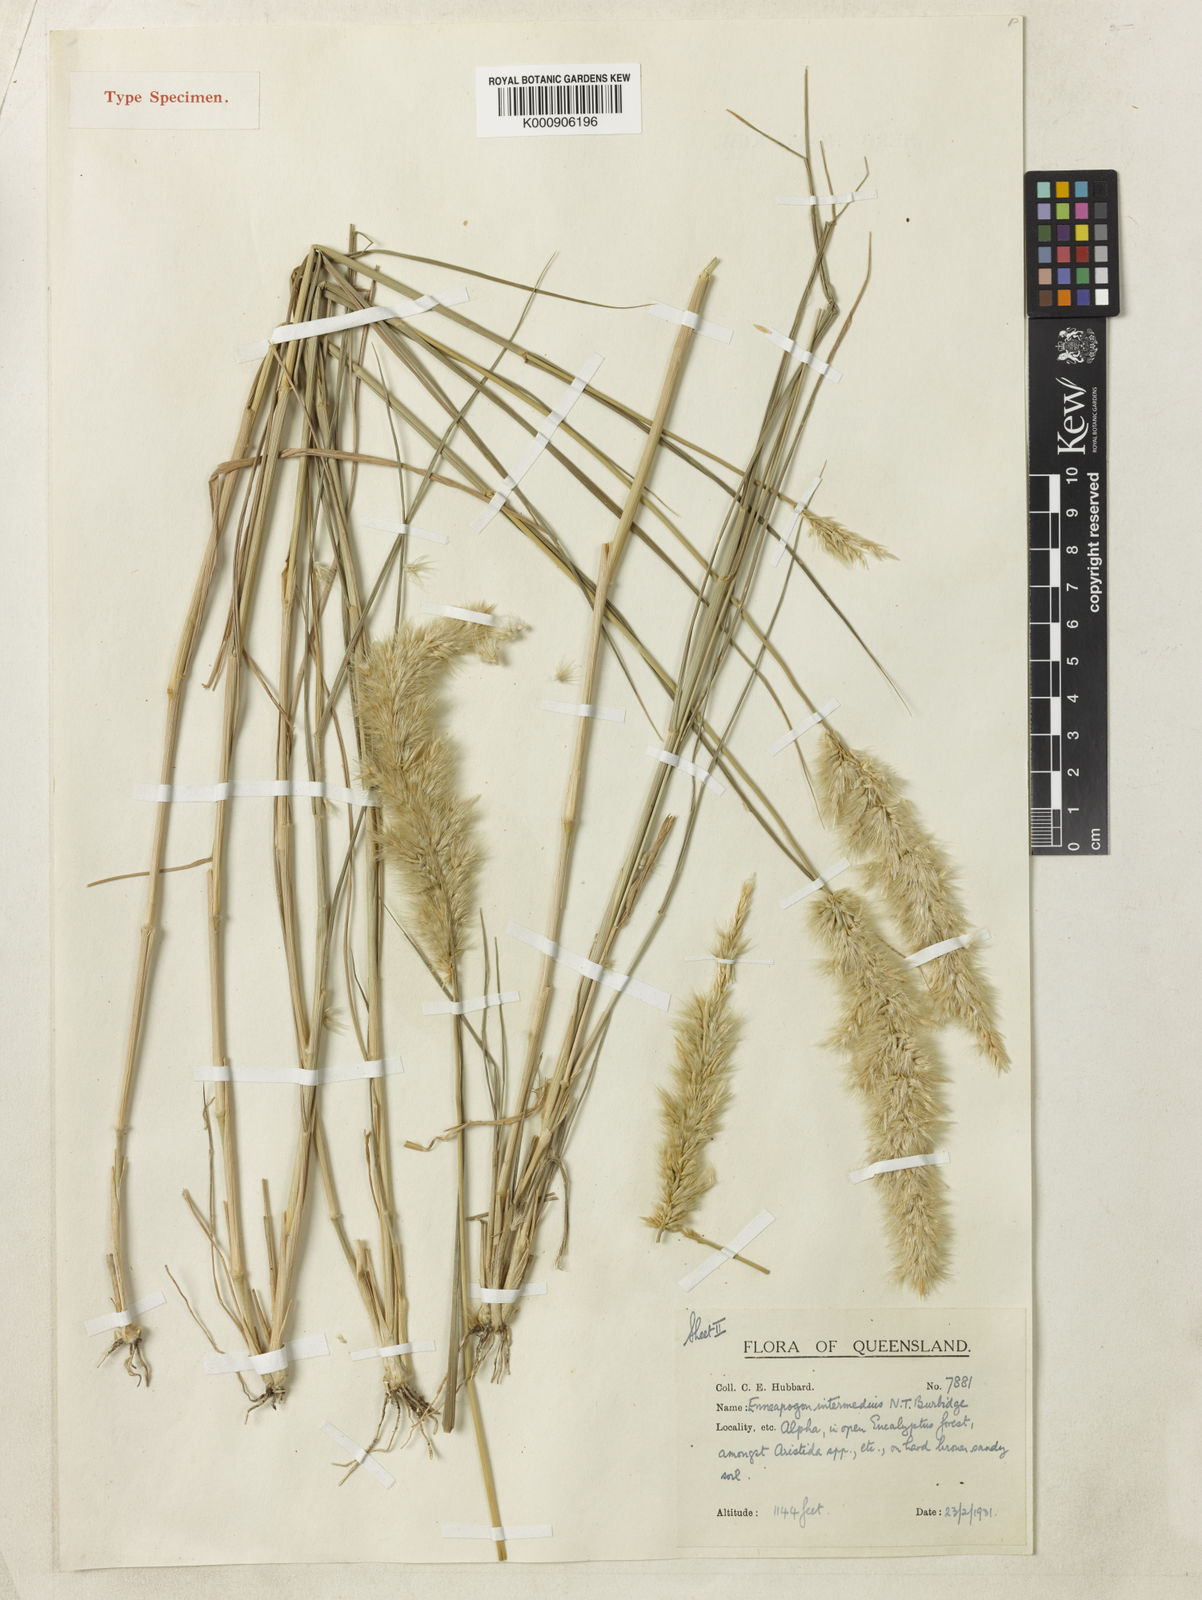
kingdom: Plantae
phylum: Tracheophyta
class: Liliopsida
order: Poales
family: Poaceae
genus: Enneapogon
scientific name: Enneapogon intermedius
